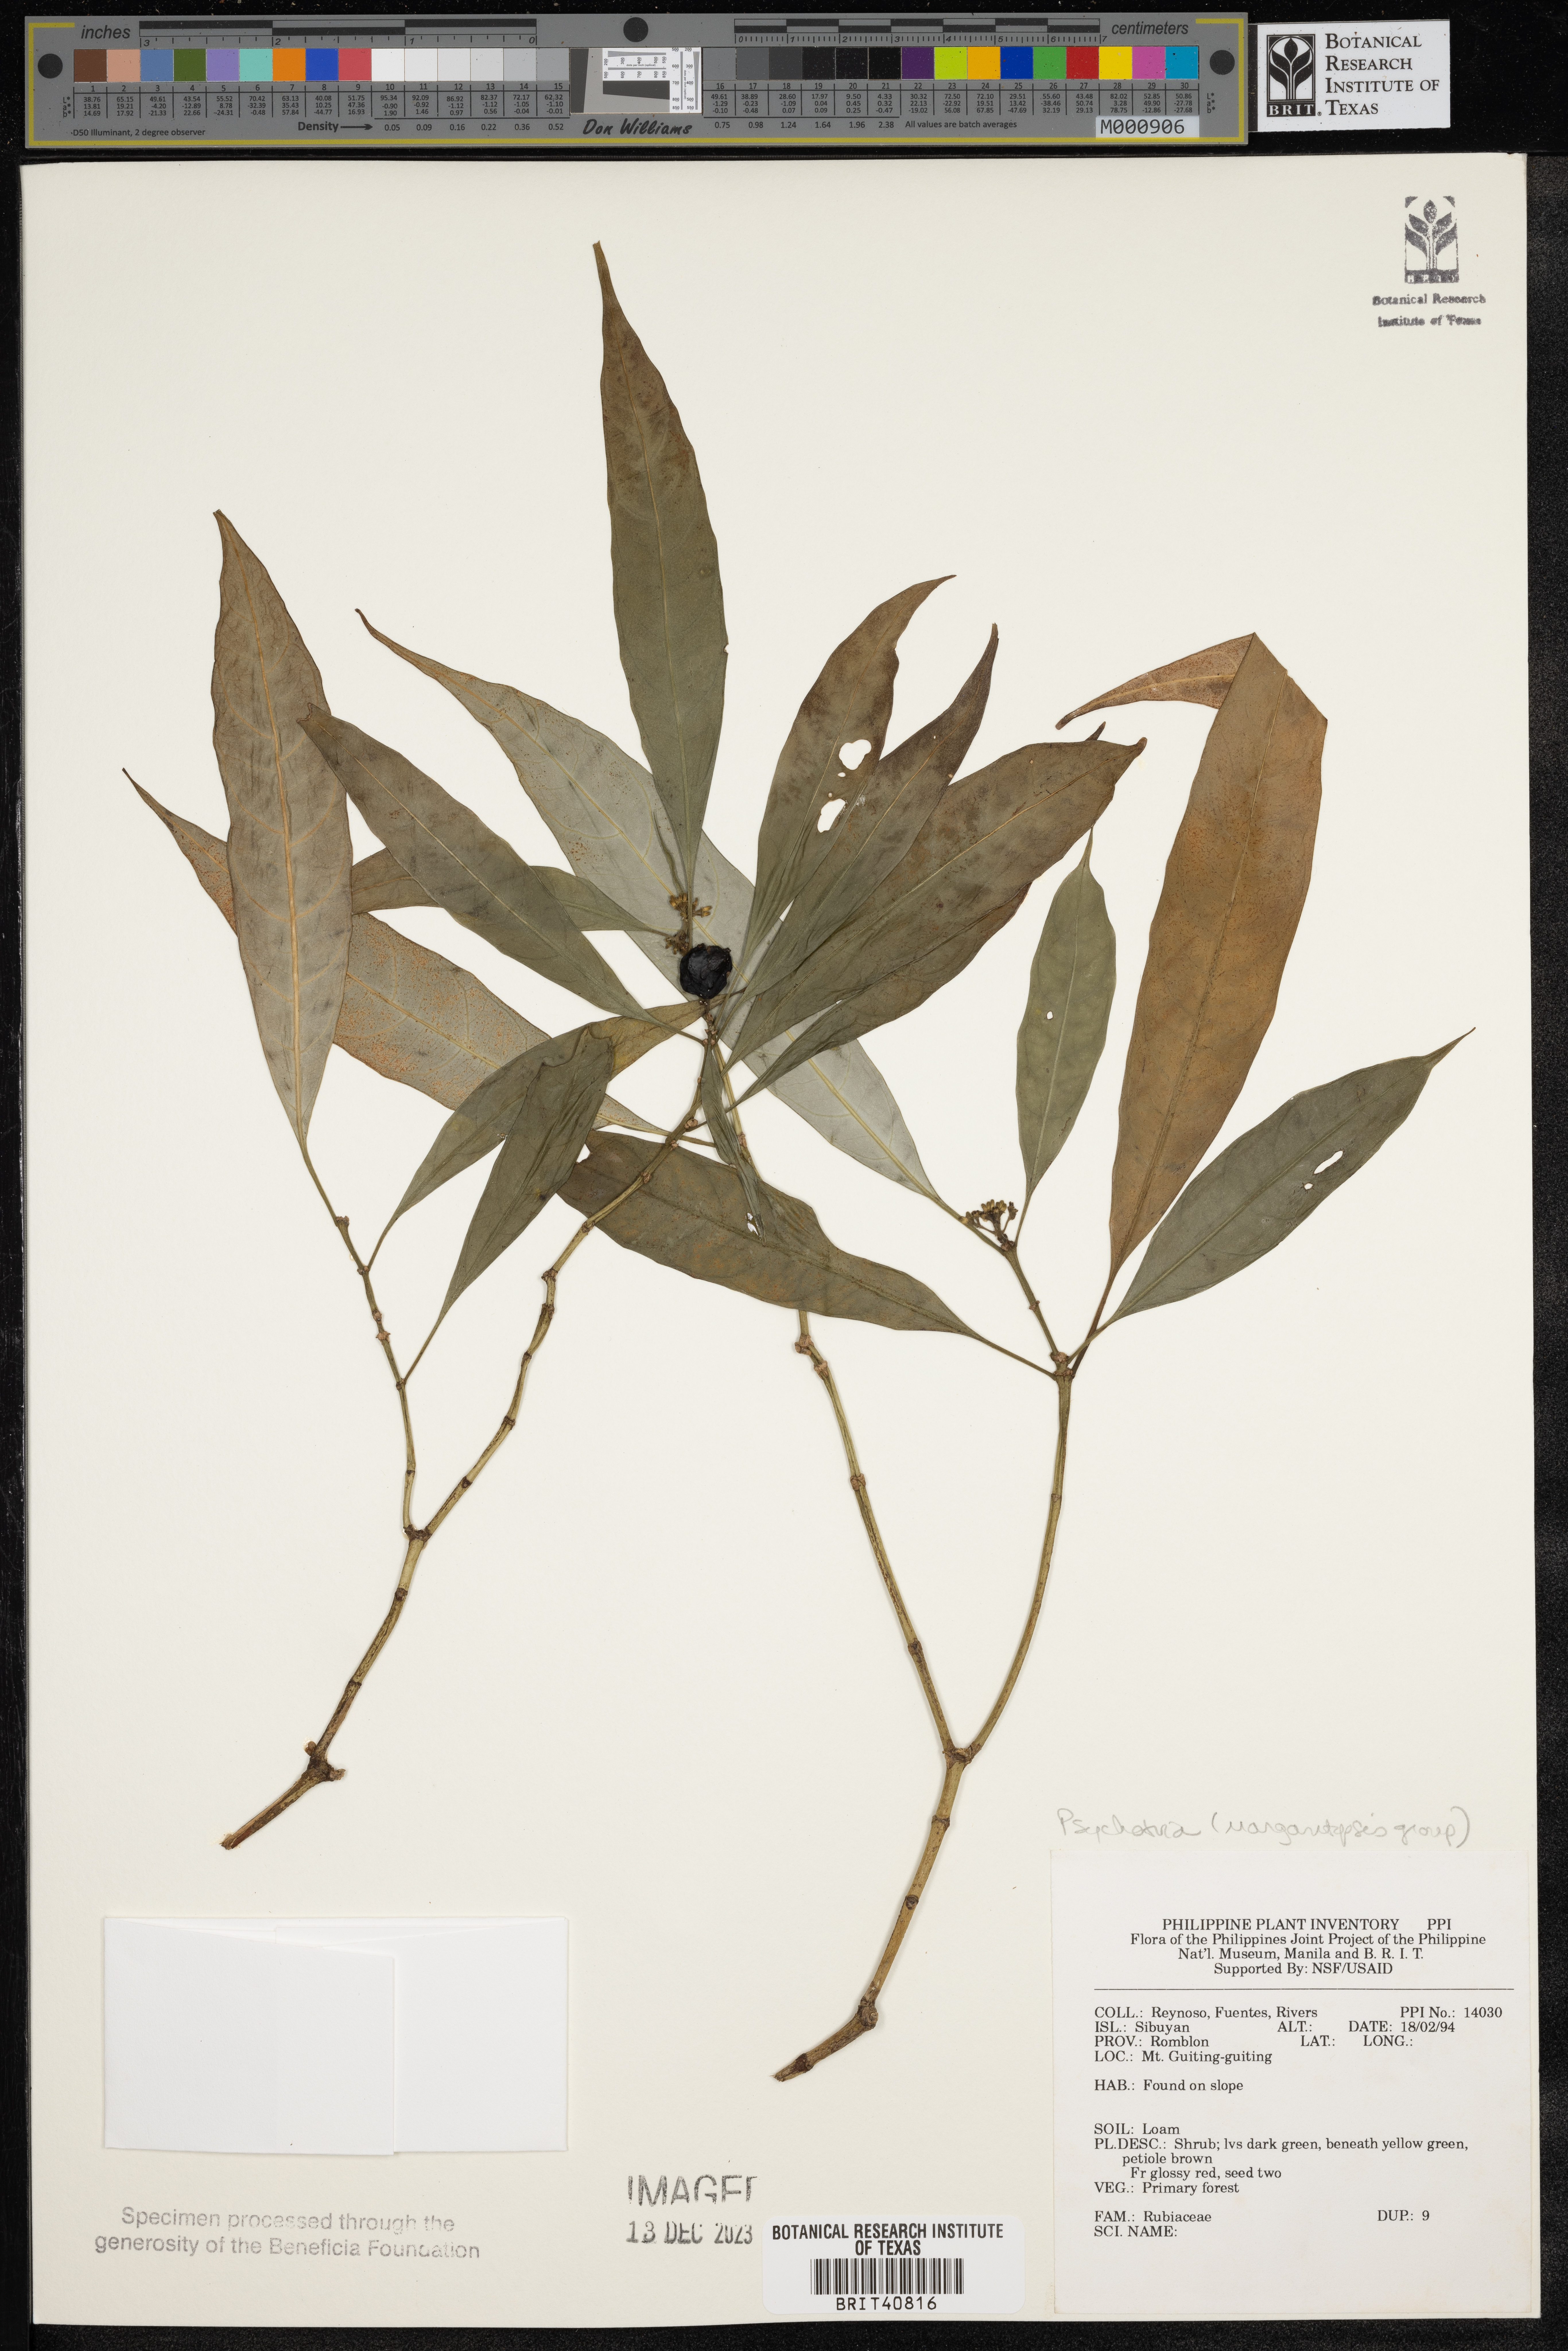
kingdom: Plantae
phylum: Tracheophyta
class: Magnoliopsida
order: Gentianales
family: Rubiaceae
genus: Psychotria
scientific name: Psychotria
